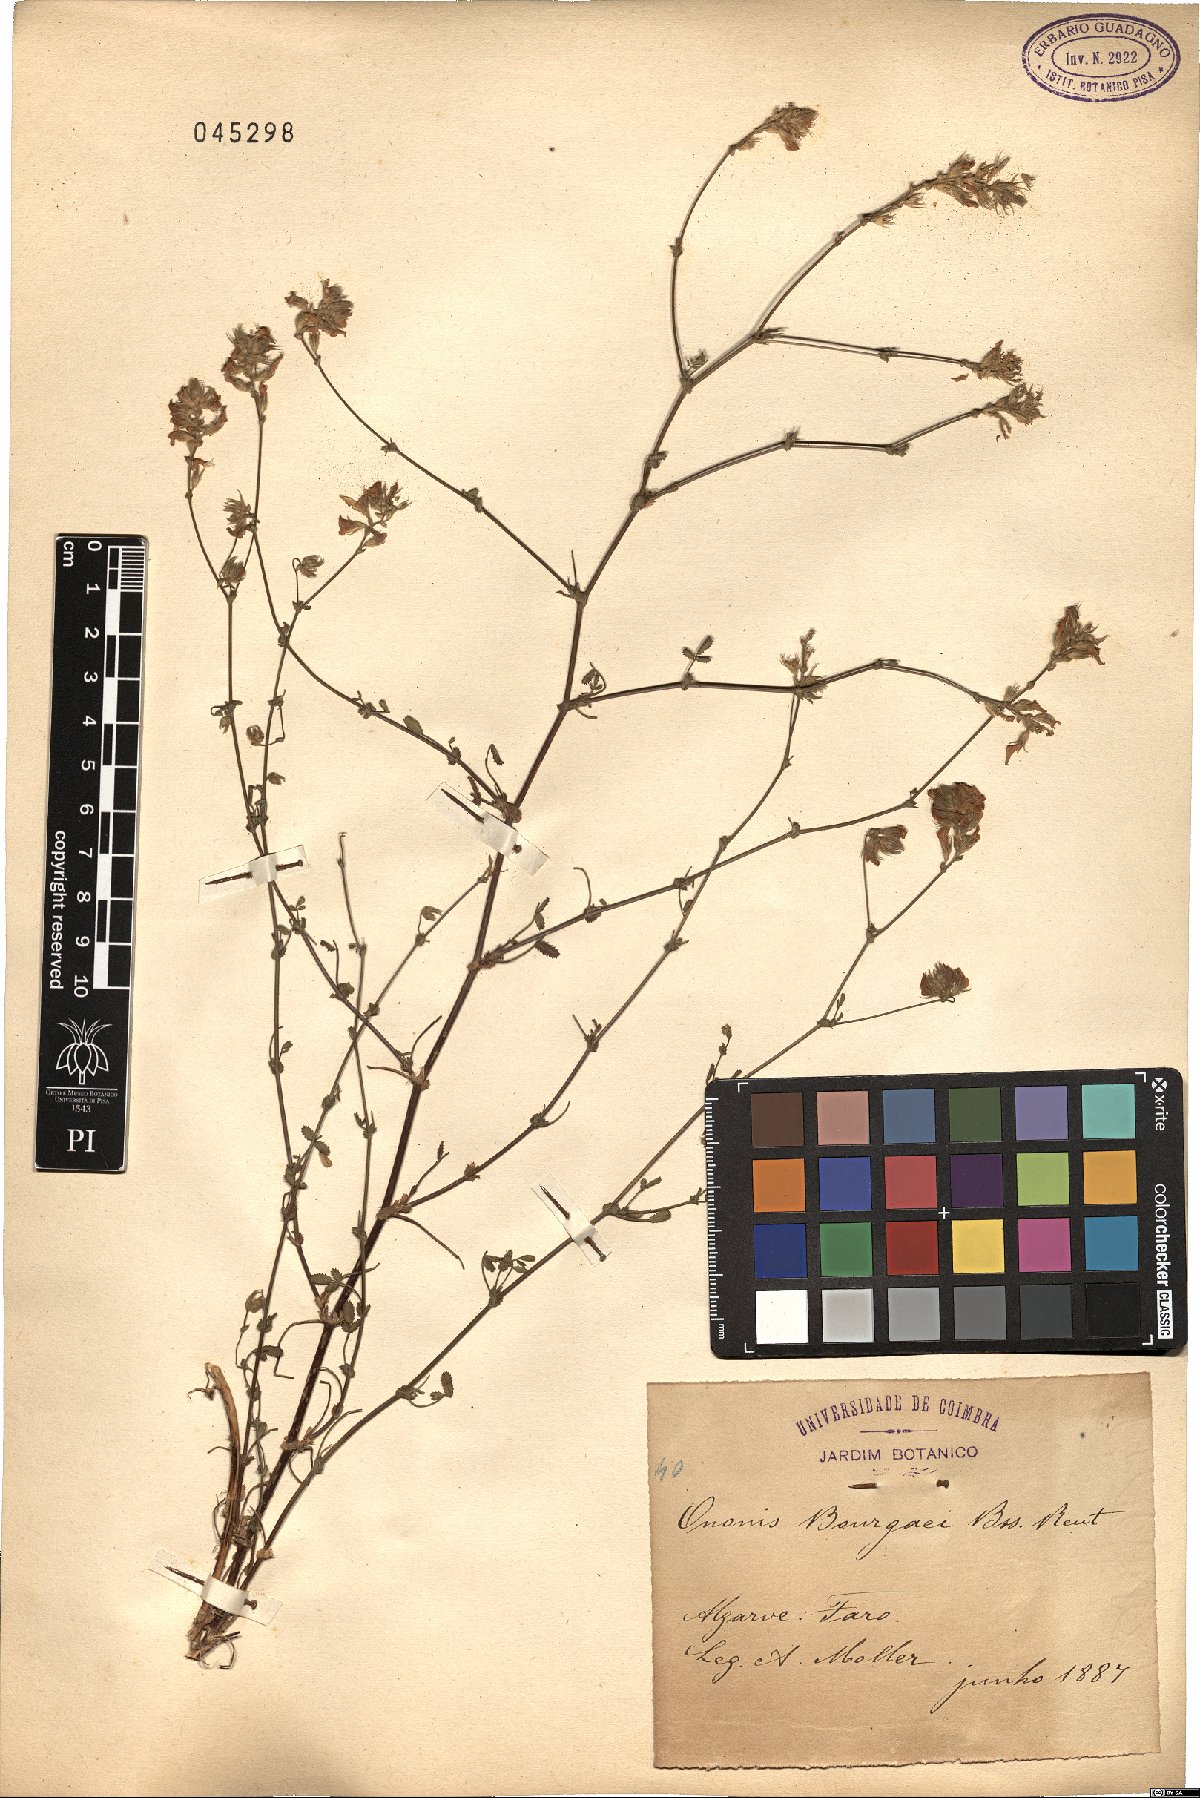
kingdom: Plantae
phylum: Tracheophyta
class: Magnoliopsida
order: Fabales
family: Fabaceae
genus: Ononis
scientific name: Ononis baetica
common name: Andalucian restharrow
